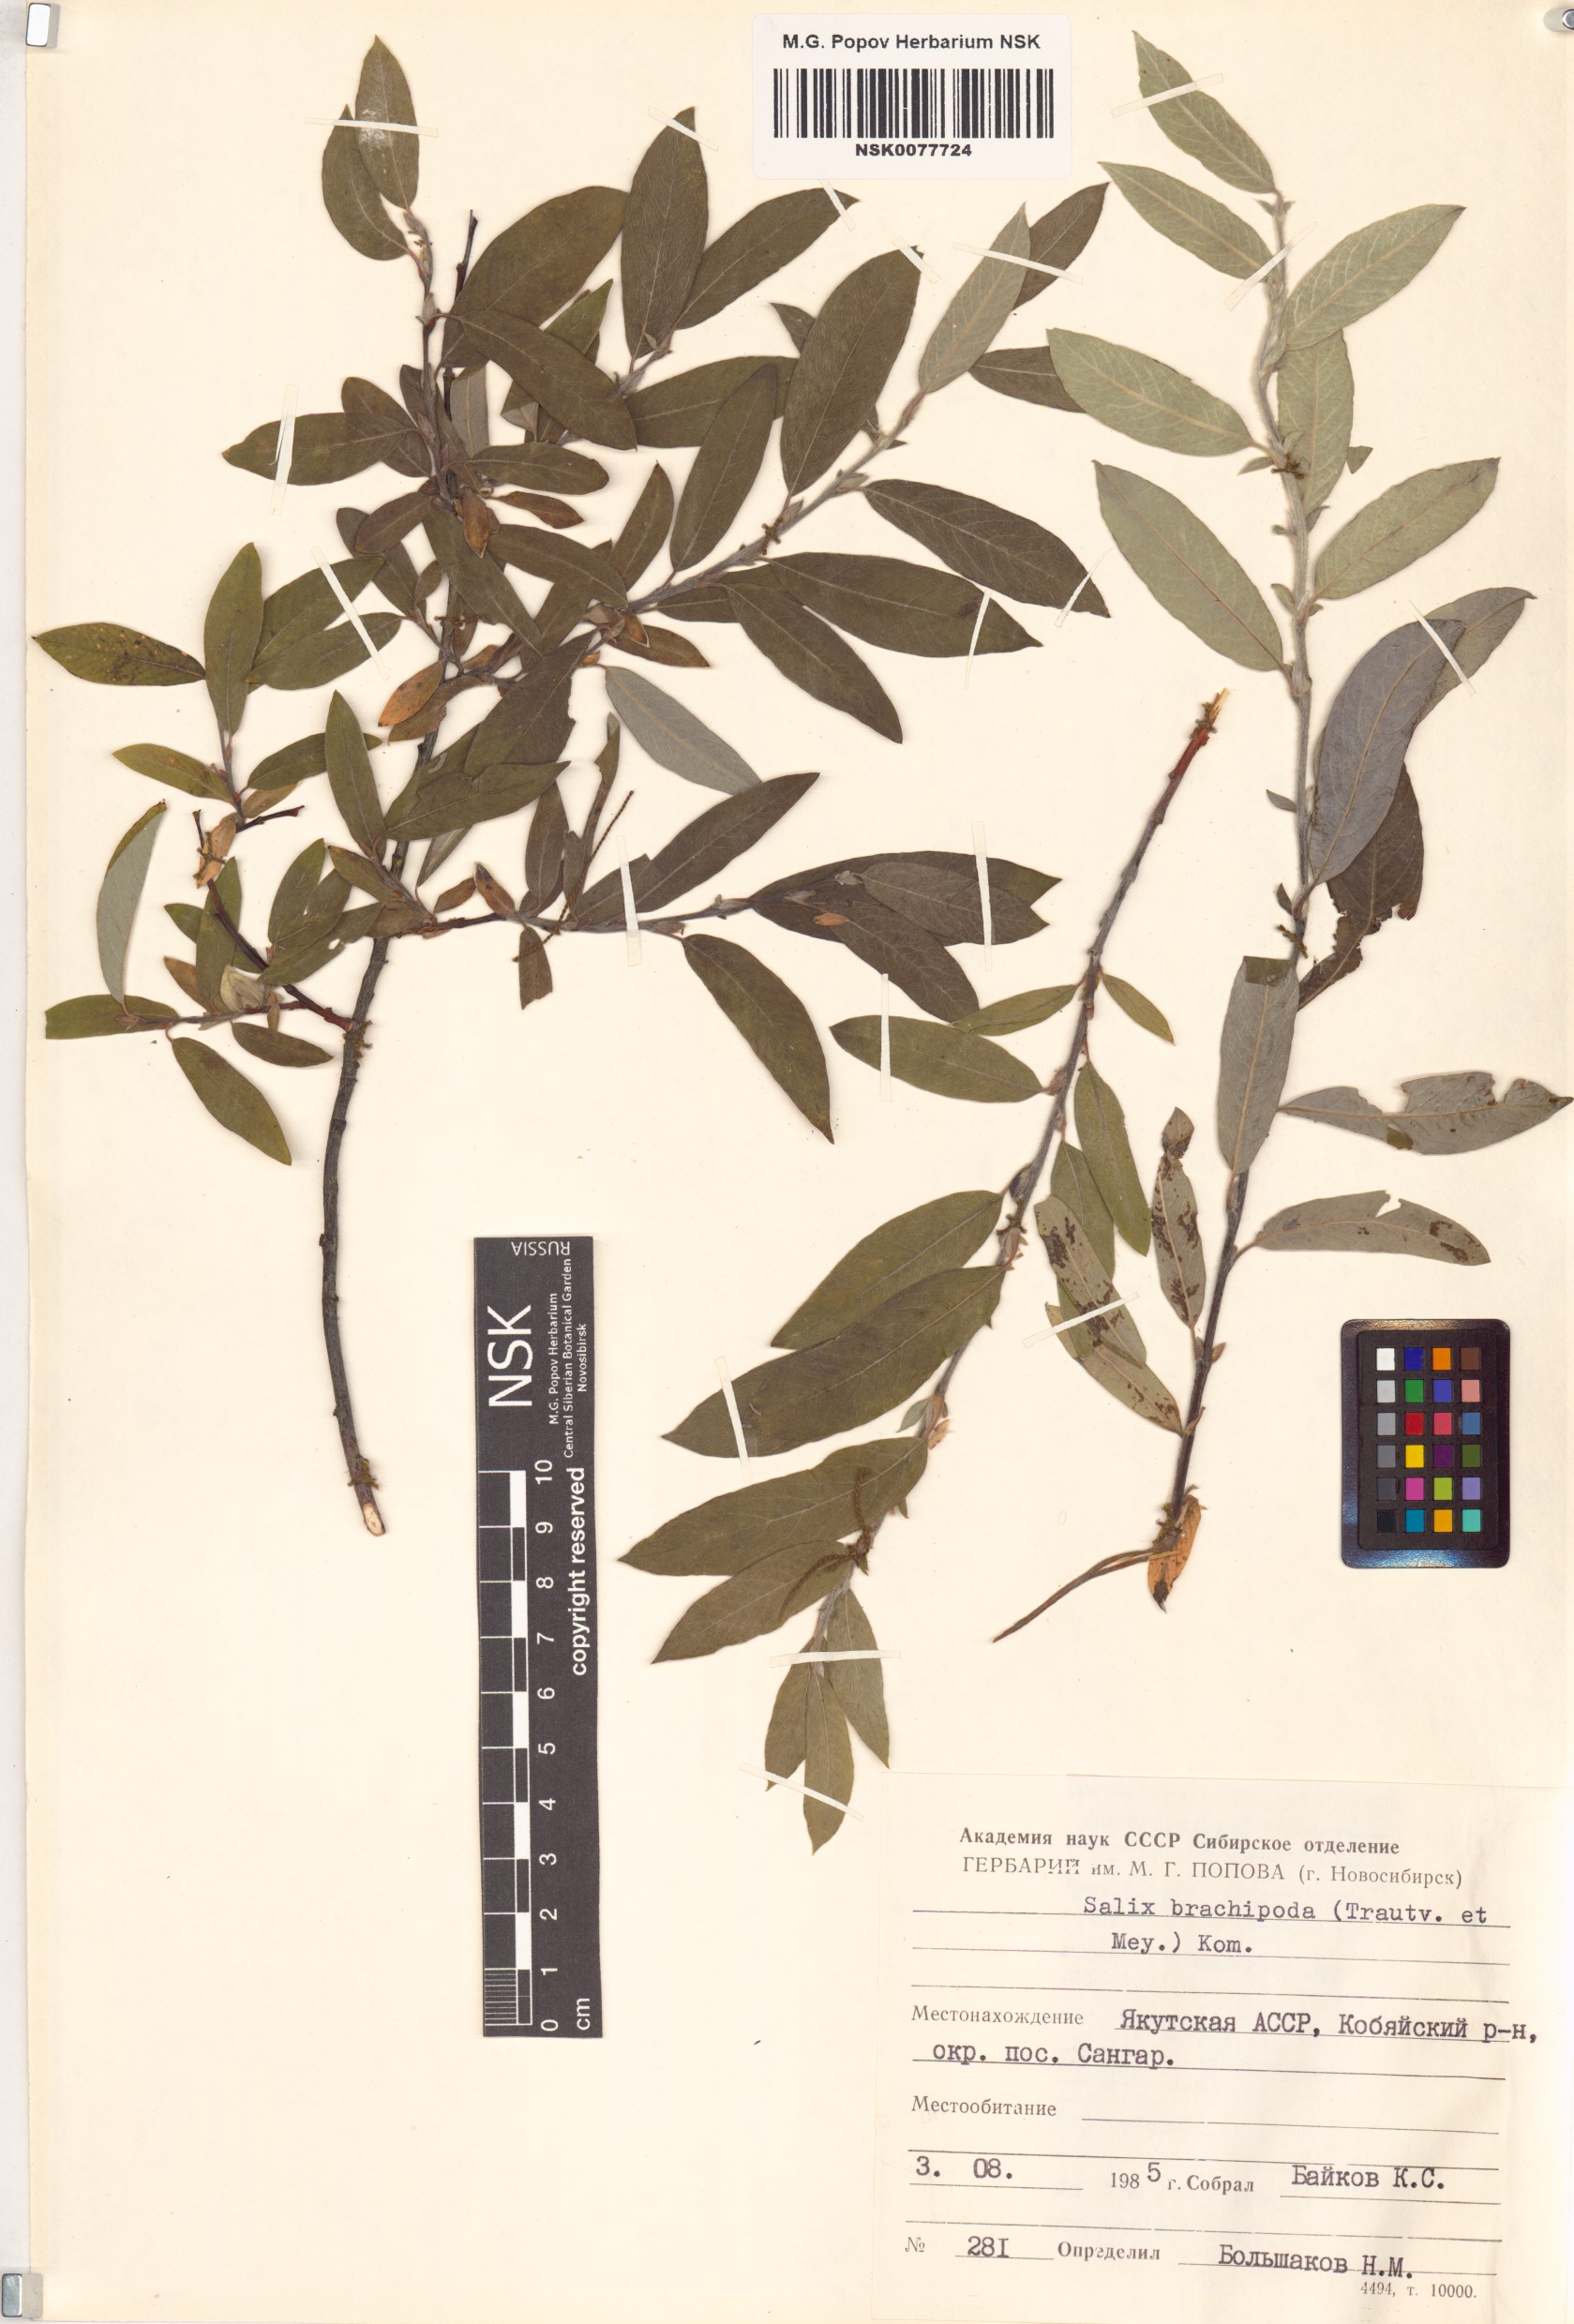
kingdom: Plantae
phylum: Tracheophyta
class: Magnoliopsida
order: Malpighiales
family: Salicaceae
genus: Salix
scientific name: Salix brachypoda
